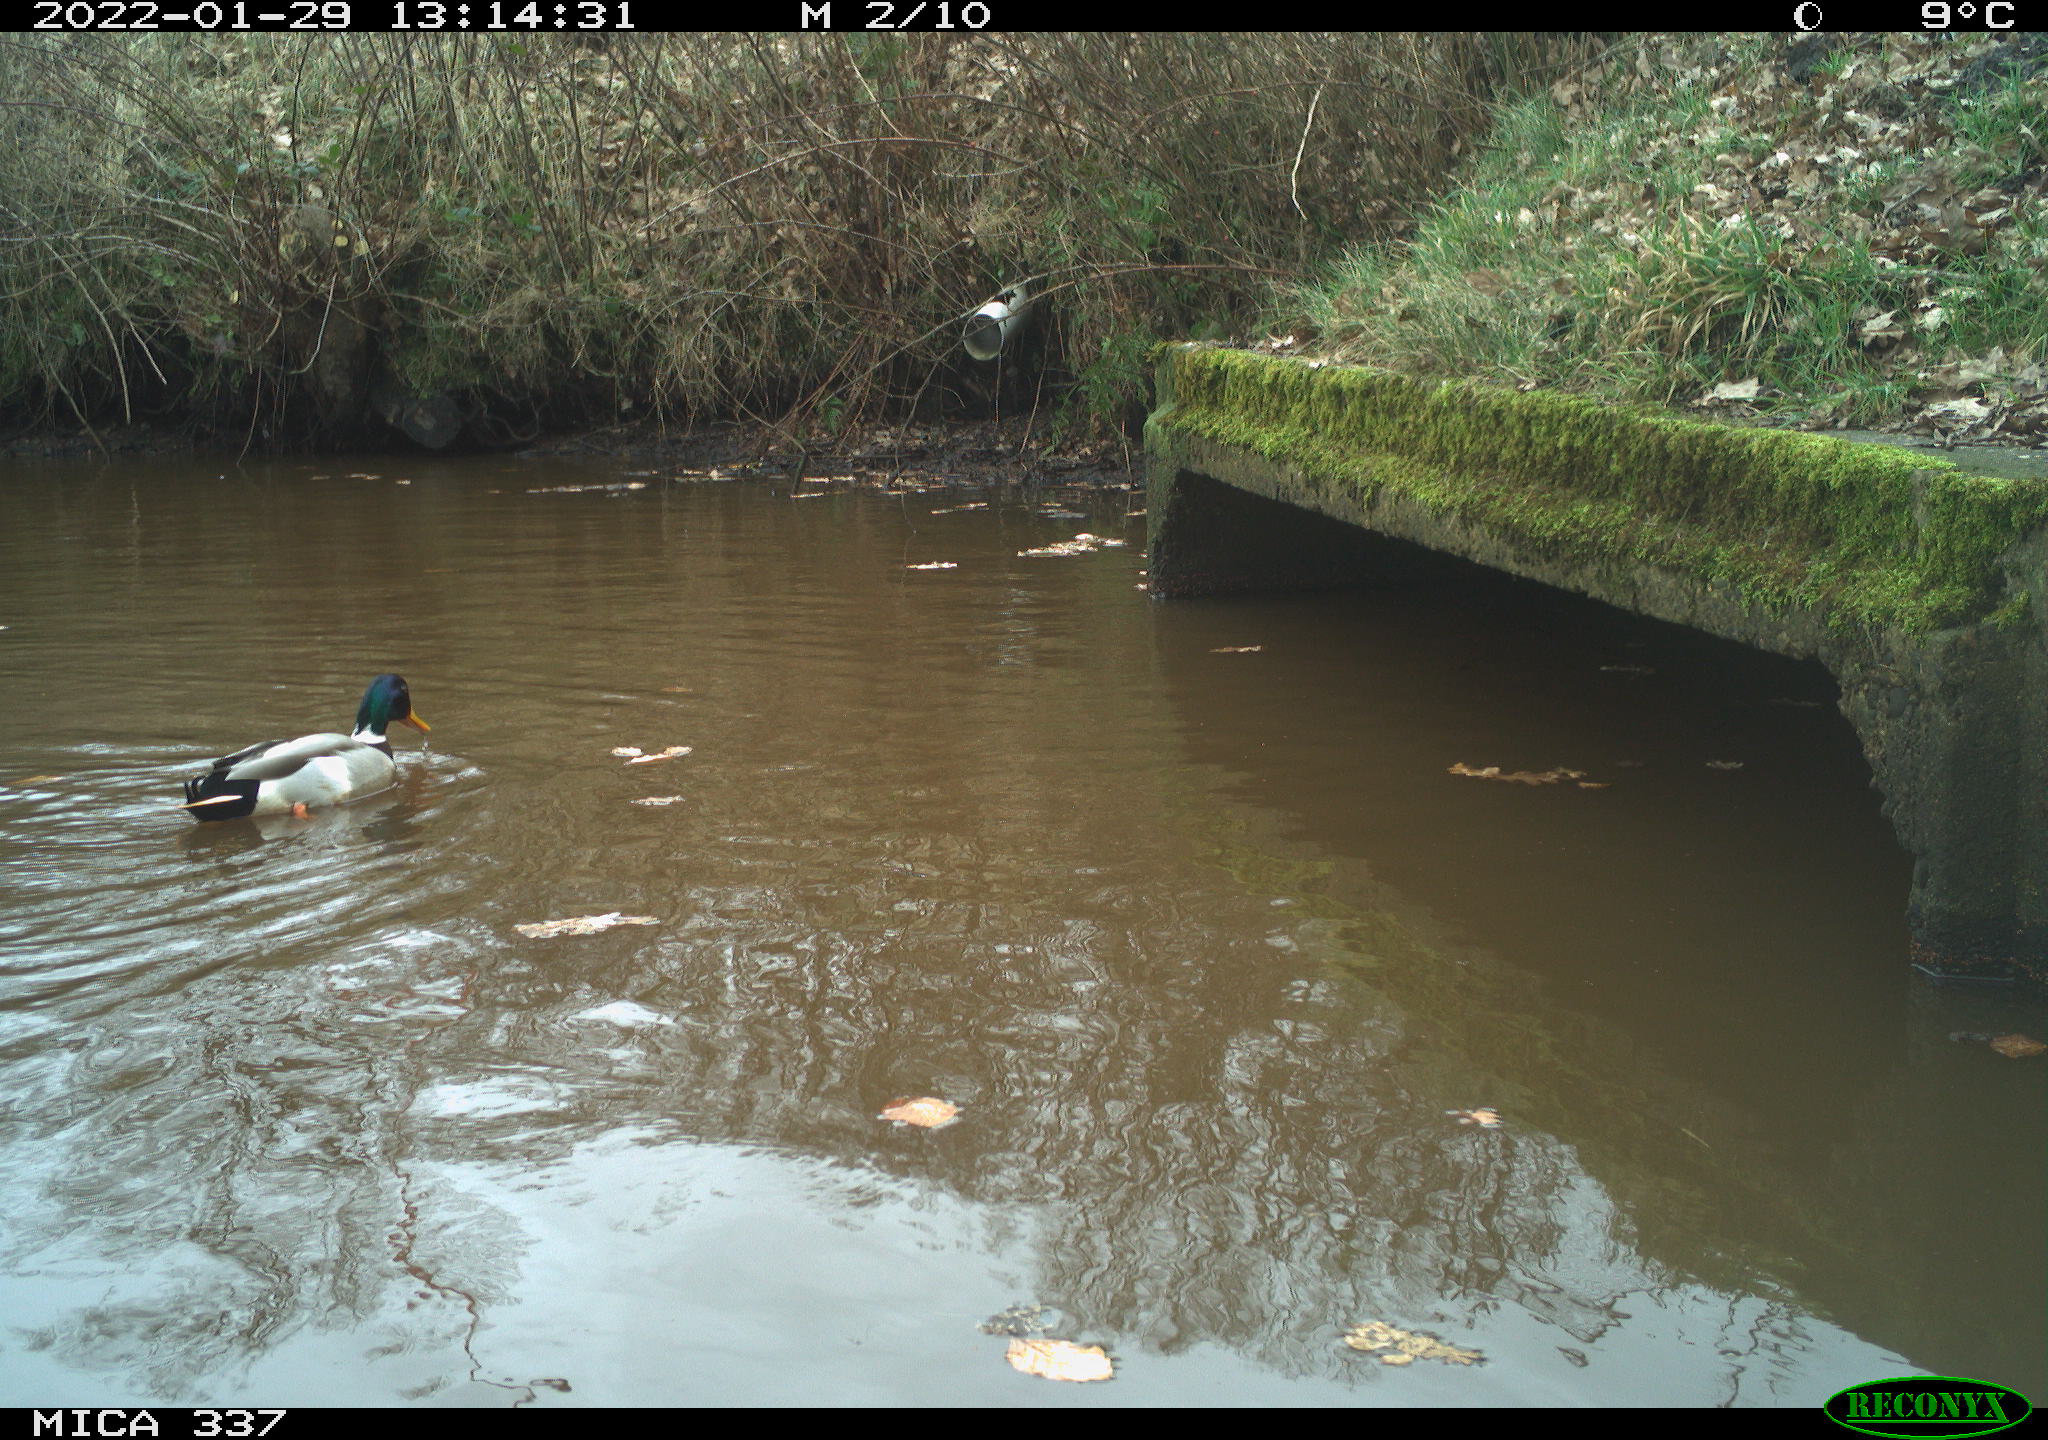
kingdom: Animalia
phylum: Chordata
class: Aves
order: Anseriformes
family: Anatidae
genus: Anas
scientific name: Anas platyrhynchos
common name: Mallard
